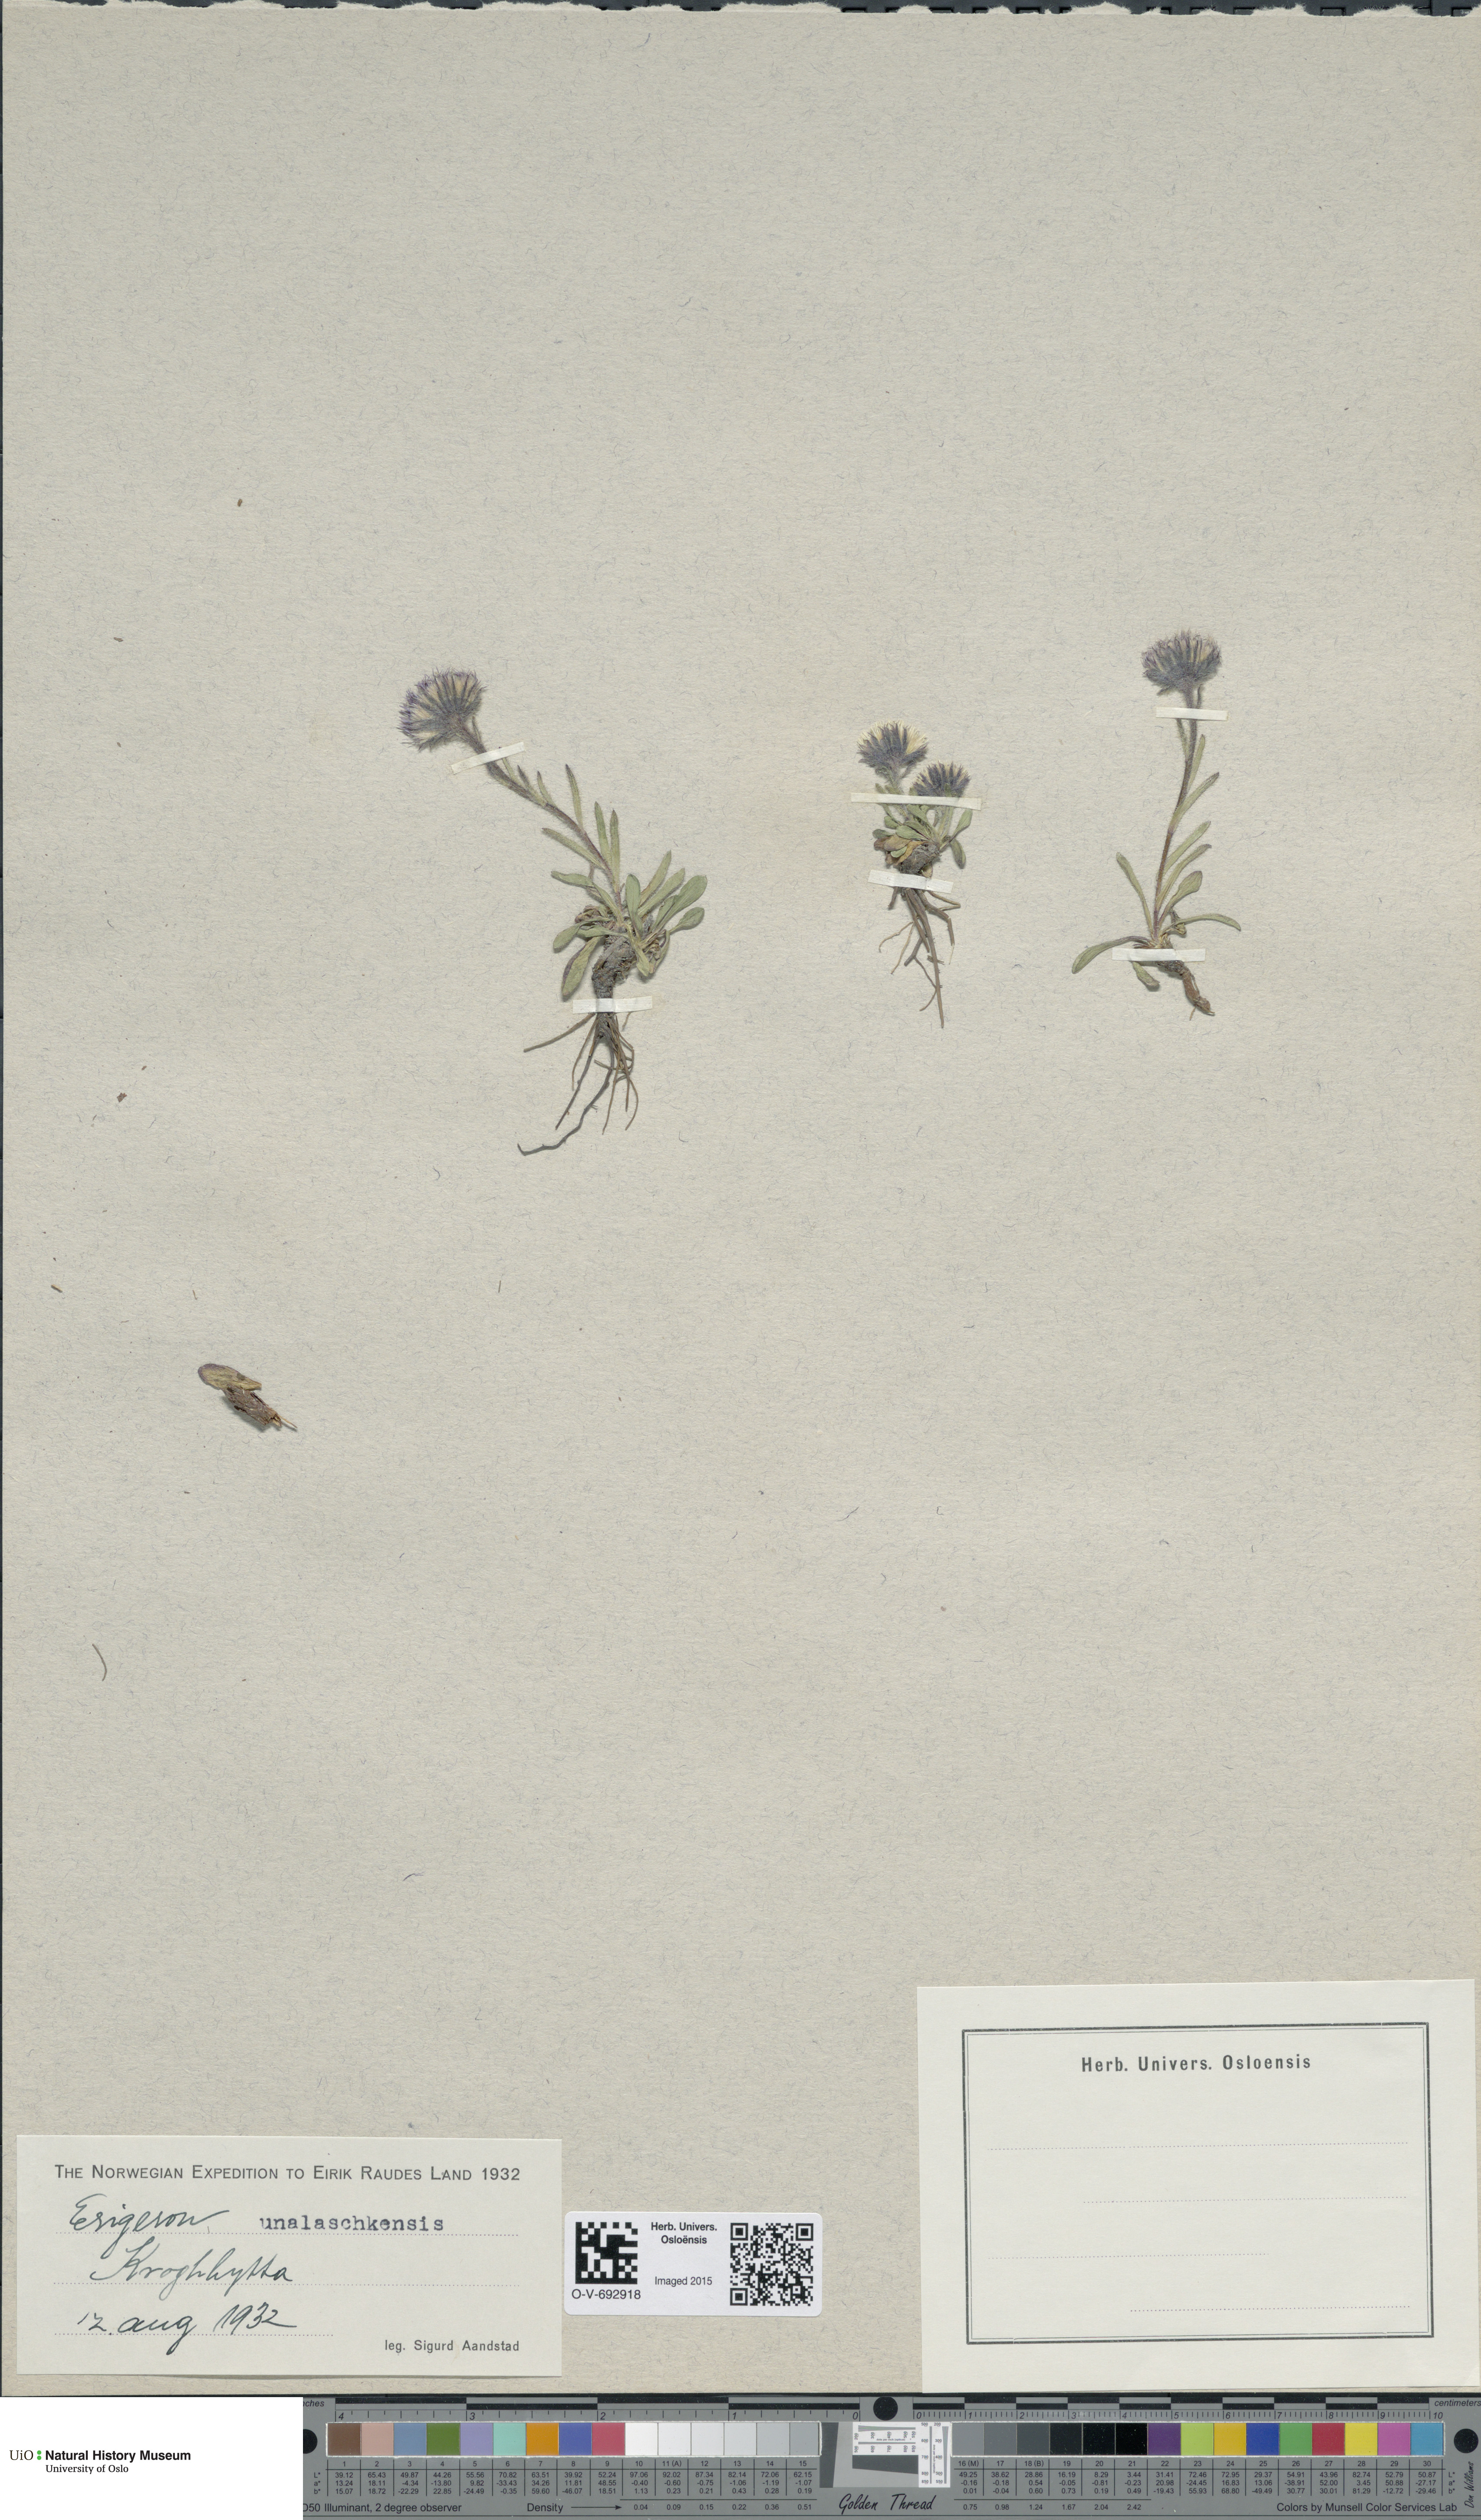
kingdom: Plantae
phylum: Tracheophyta
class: Magnoliopsida
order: Asterales
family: Asteraceae
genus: Erigeron
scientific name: Erigeron humilis
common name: Arctic-alpine fleabane
